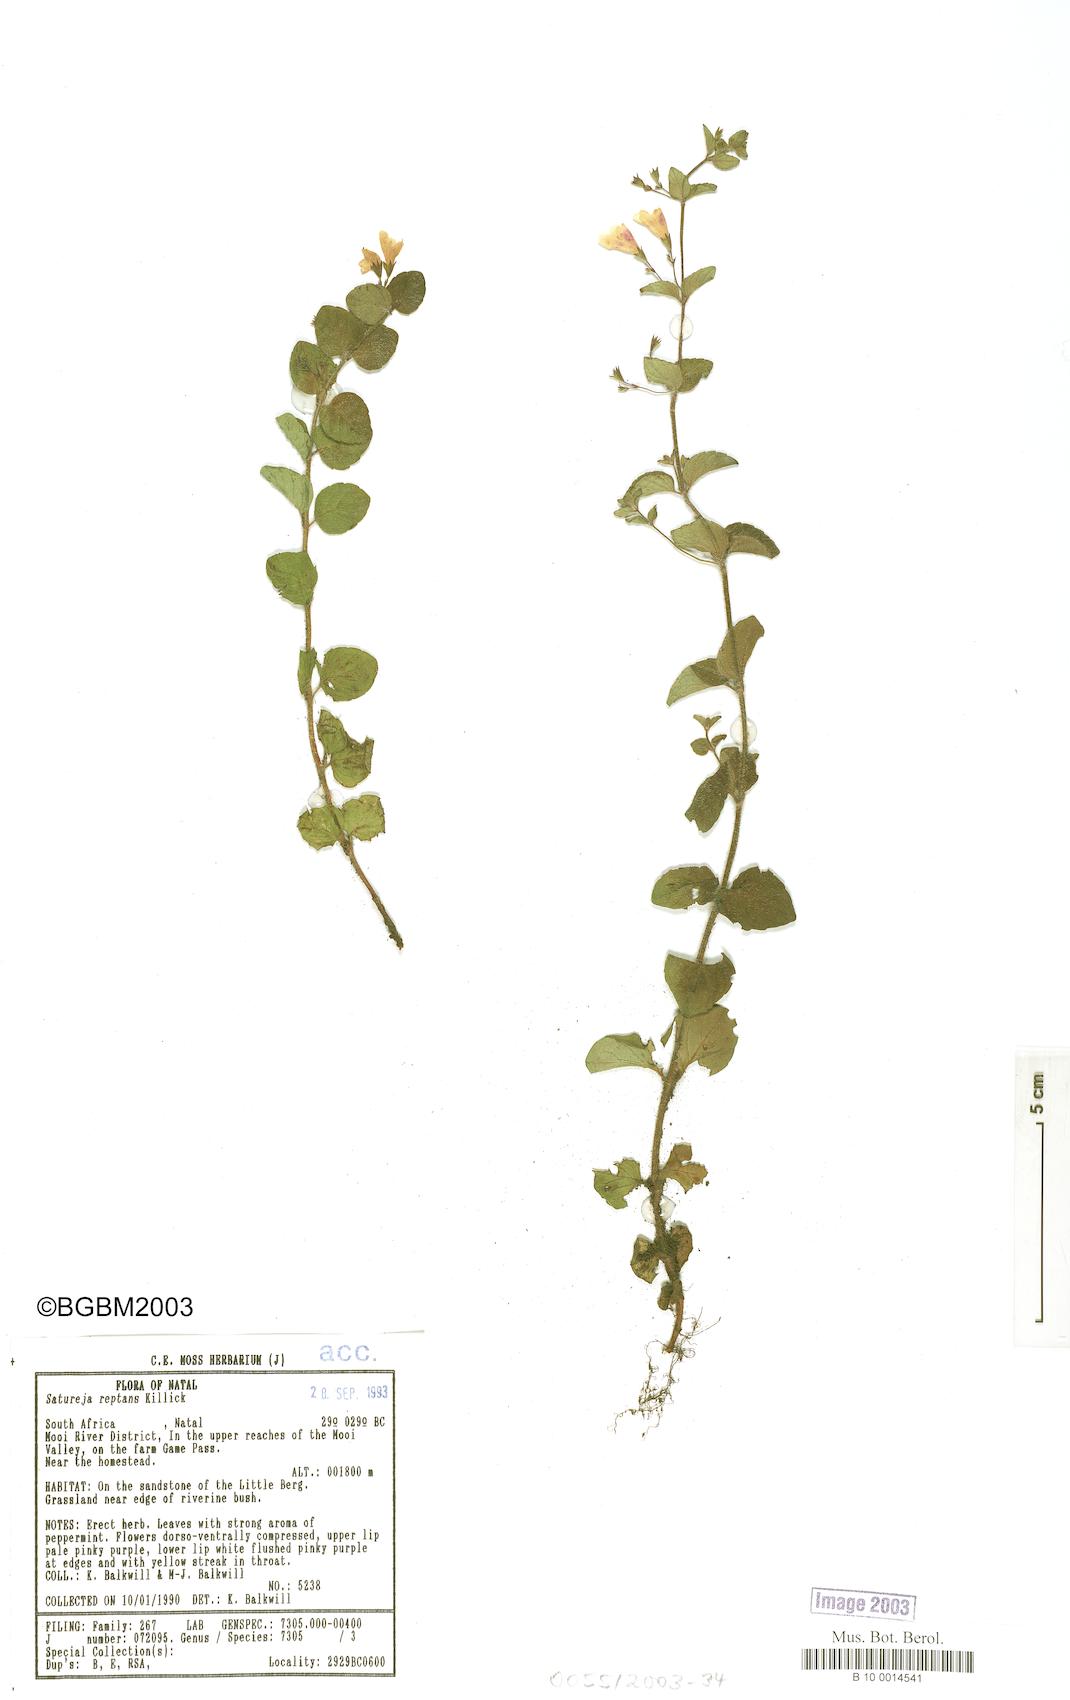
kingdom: Plantae
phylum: Tracheophyta
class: Magnoliopsida
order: Lamiales
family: Lamiaceae
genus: Killickia
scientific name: Killickia pilosa
